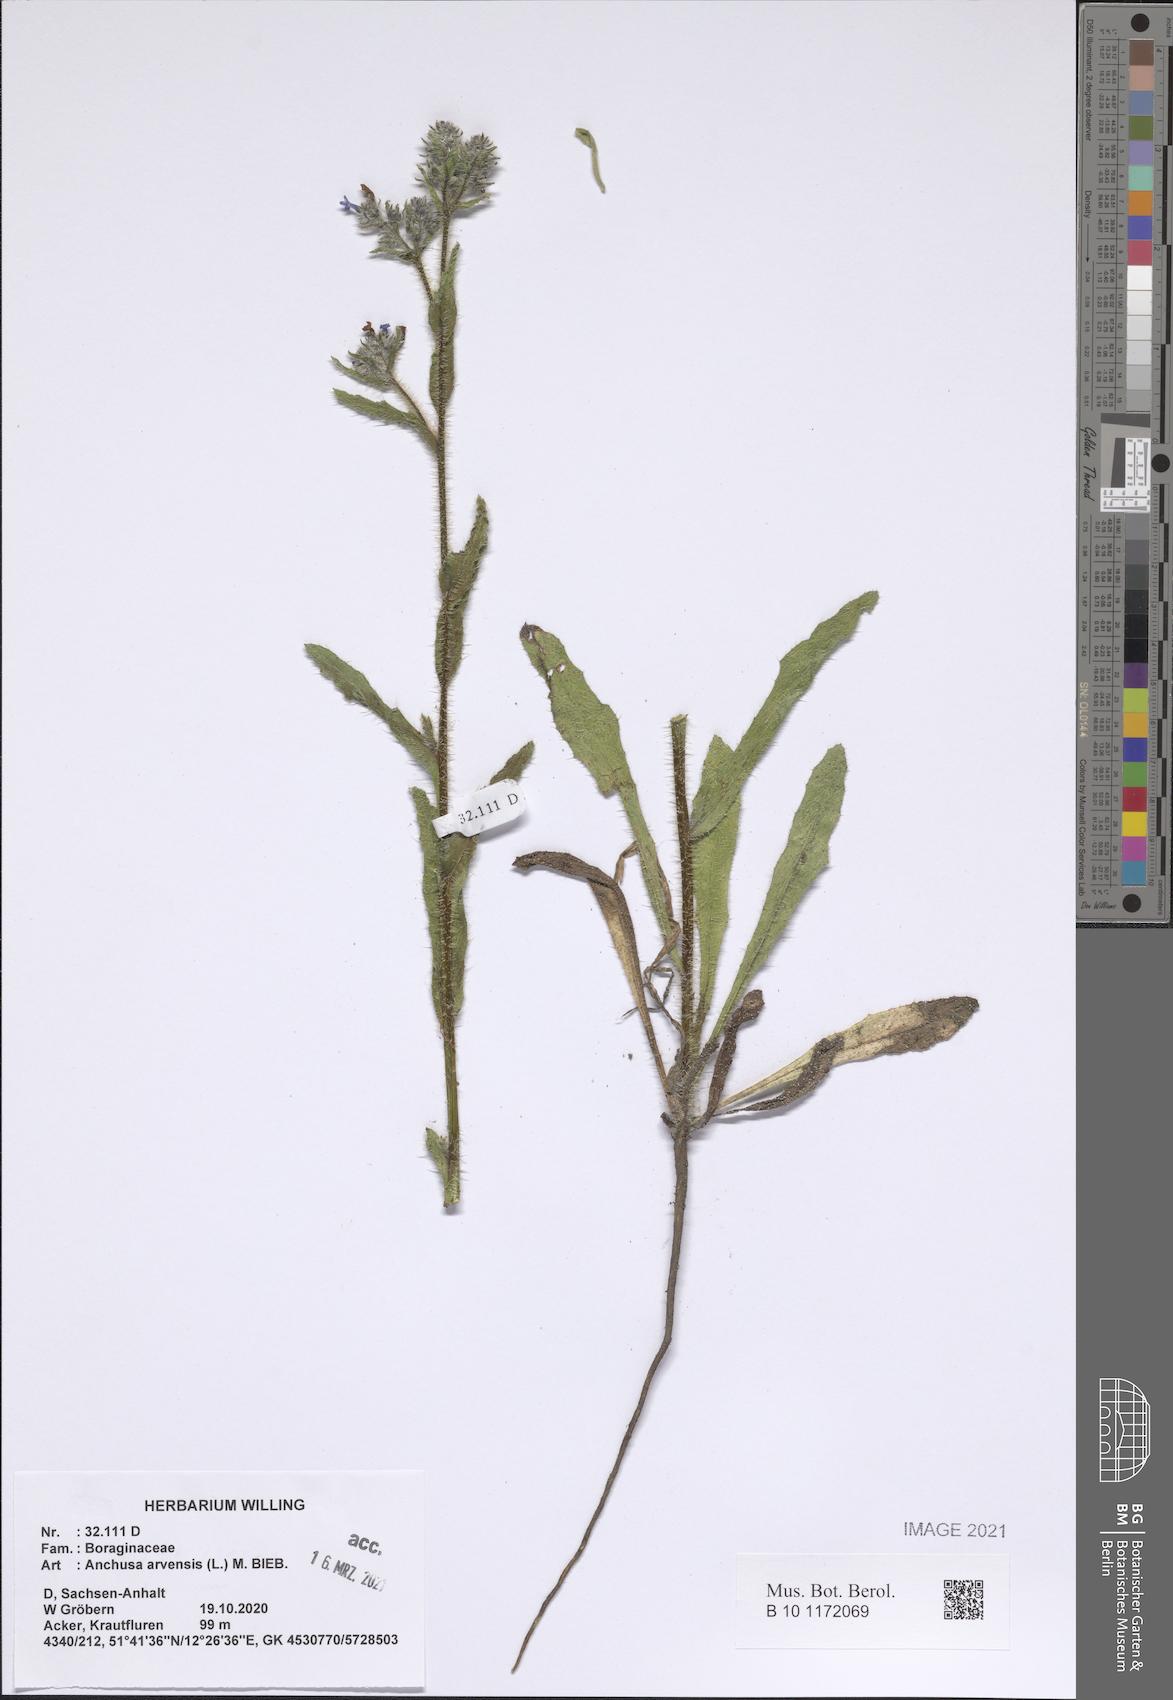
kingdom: Plantae
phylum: Tracheophyta
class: Magnoliopsida
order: Boraginales
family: Boraginaceae
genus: Lycopsis
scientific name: Lycopsis arvensis
